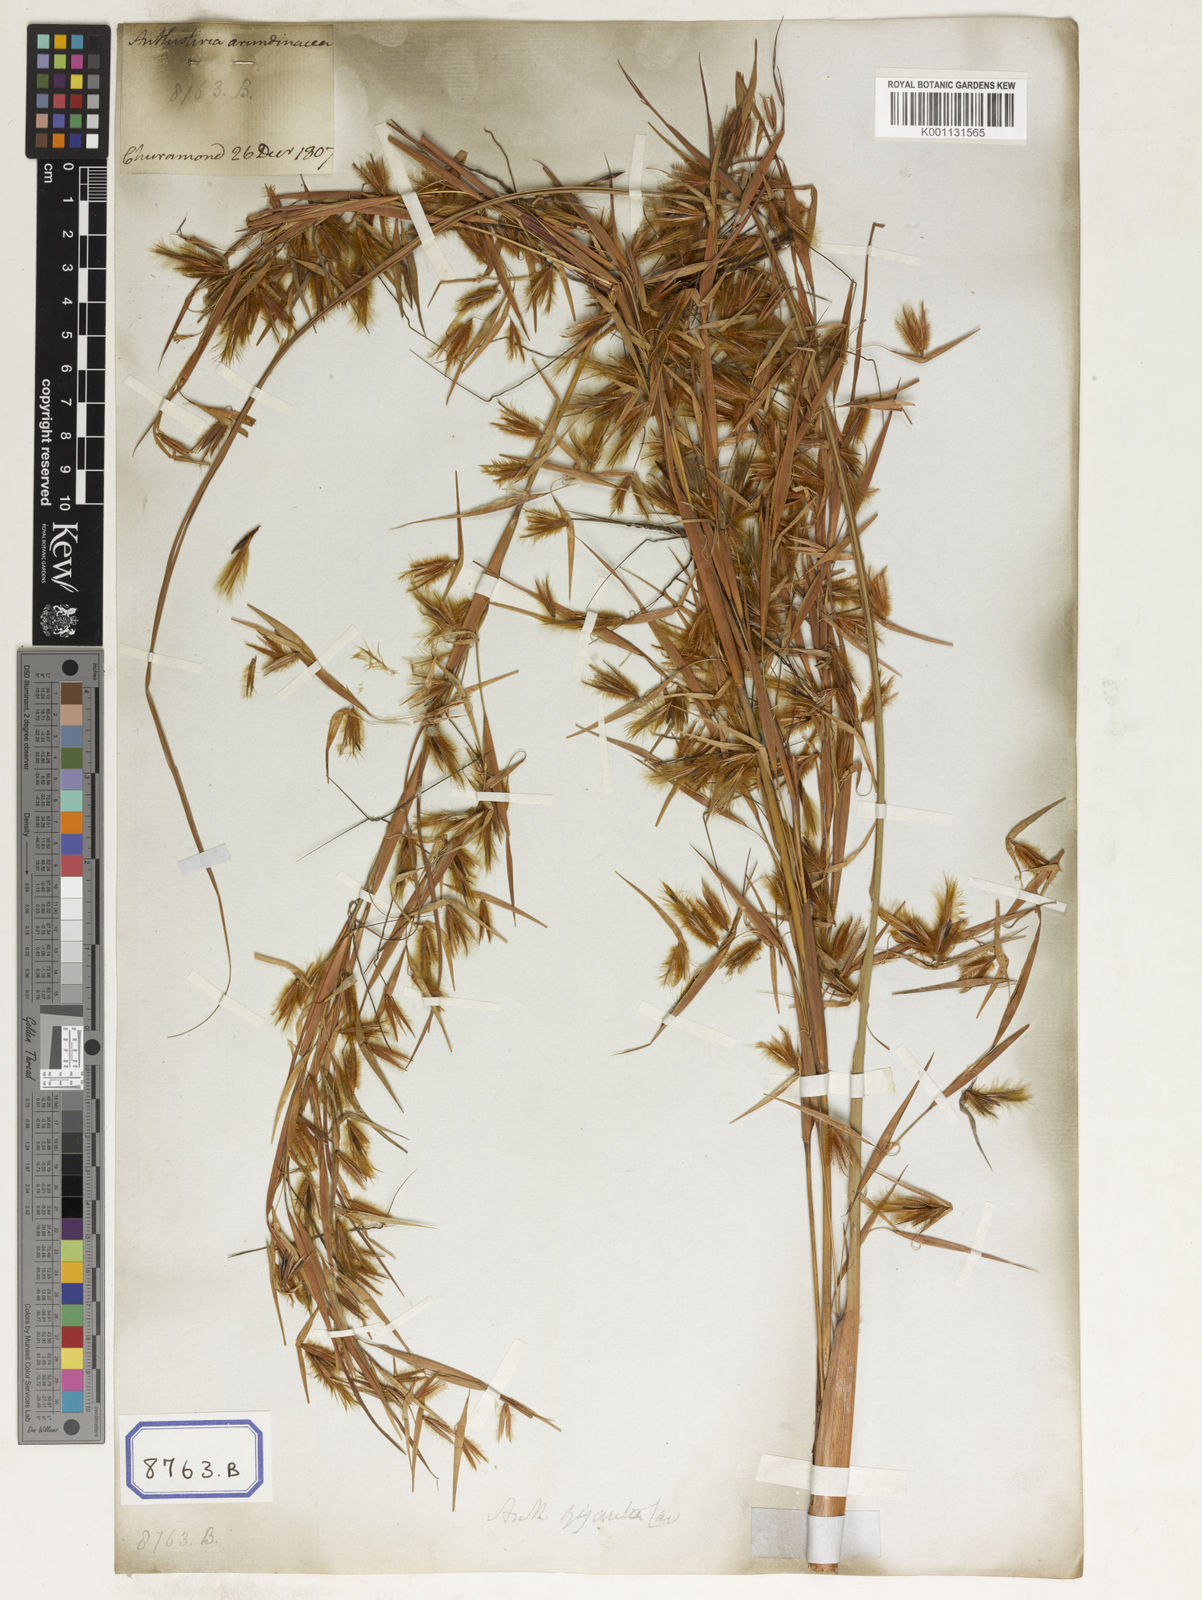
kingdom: Plantae
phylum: Tracheophyta
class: Liliopsida
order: Poales
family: Poaceae
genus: Themeda
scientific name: Themeda
